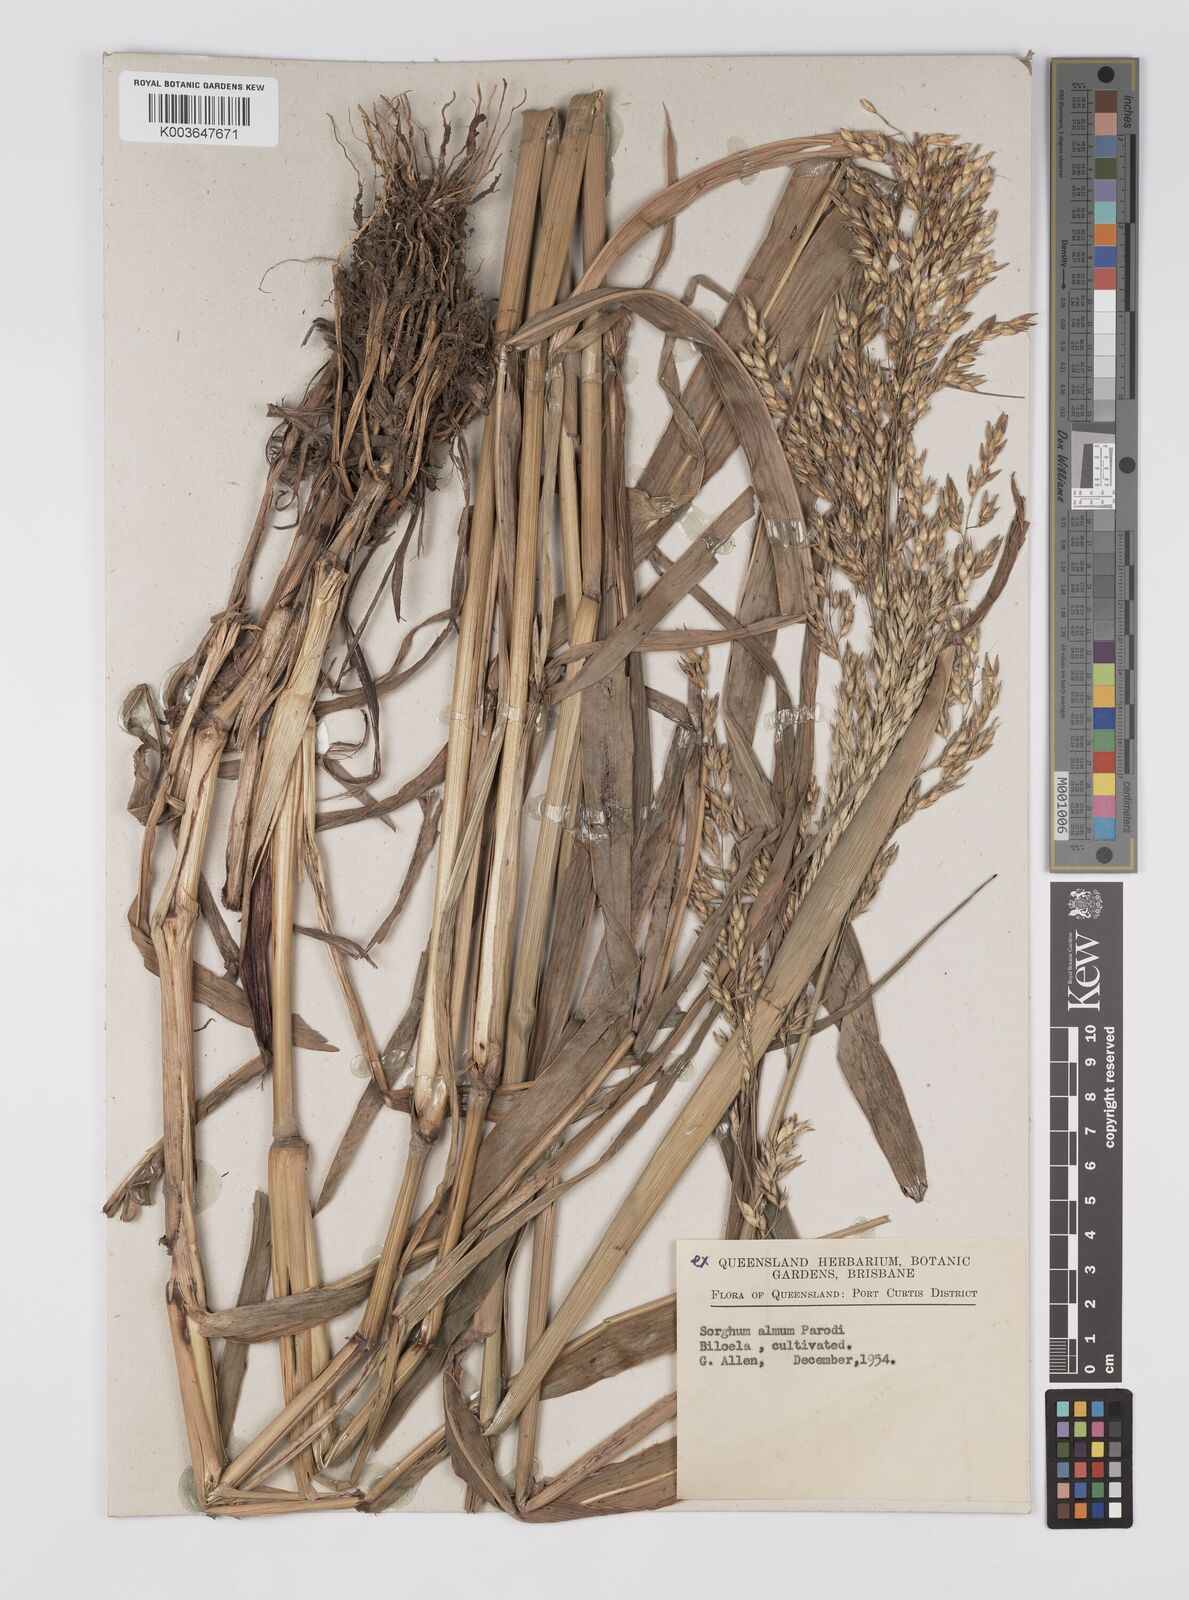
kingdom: Plantae
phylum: Tracheophyta
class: Liliopsida
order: Poales
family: Poaceae
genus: Sorghum
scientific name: Sorghum almum
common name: Columbus grass
